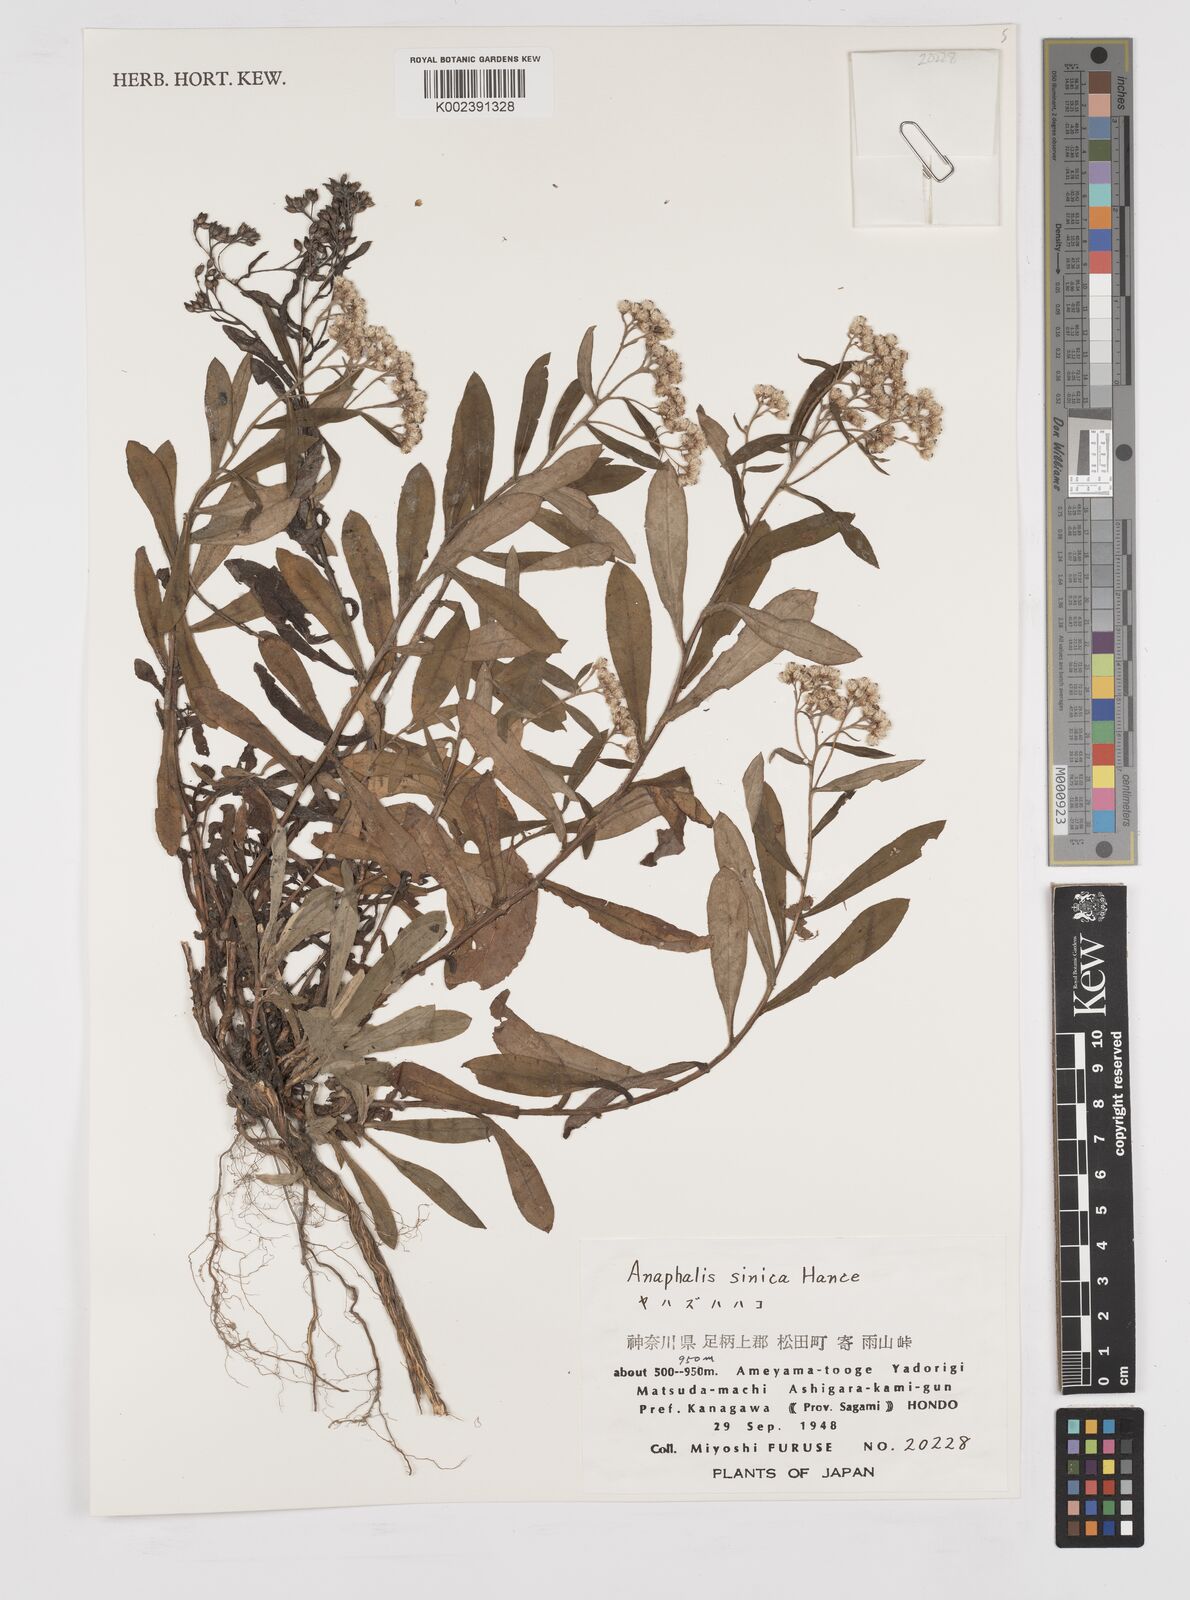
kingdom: Plantae
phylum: Tracheophyta
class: Magnoliopsida
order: Asterales
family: Asteraceae
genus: Anaphalis
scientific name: Anaphalis sinica
